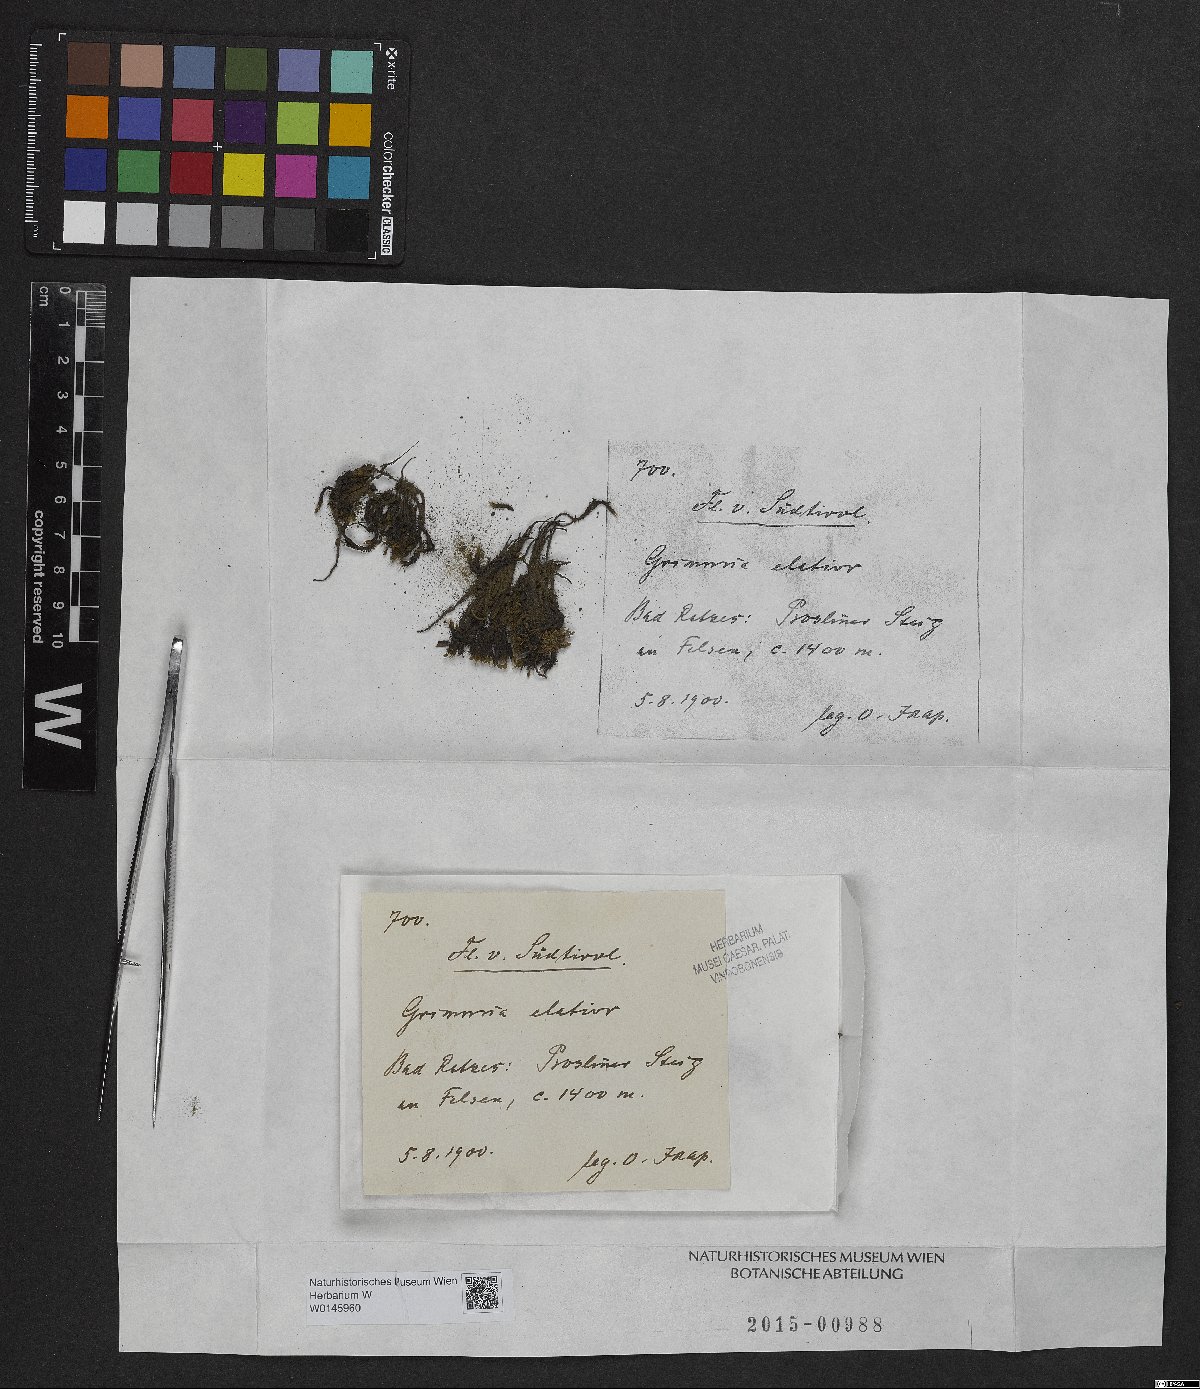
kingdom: Plantae
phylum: Bryophyta
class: Bryopsida
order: Grimmiales
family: Grimmiaceae
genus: Grimmia
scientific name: Grimmia elatior
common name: Large grimmia
